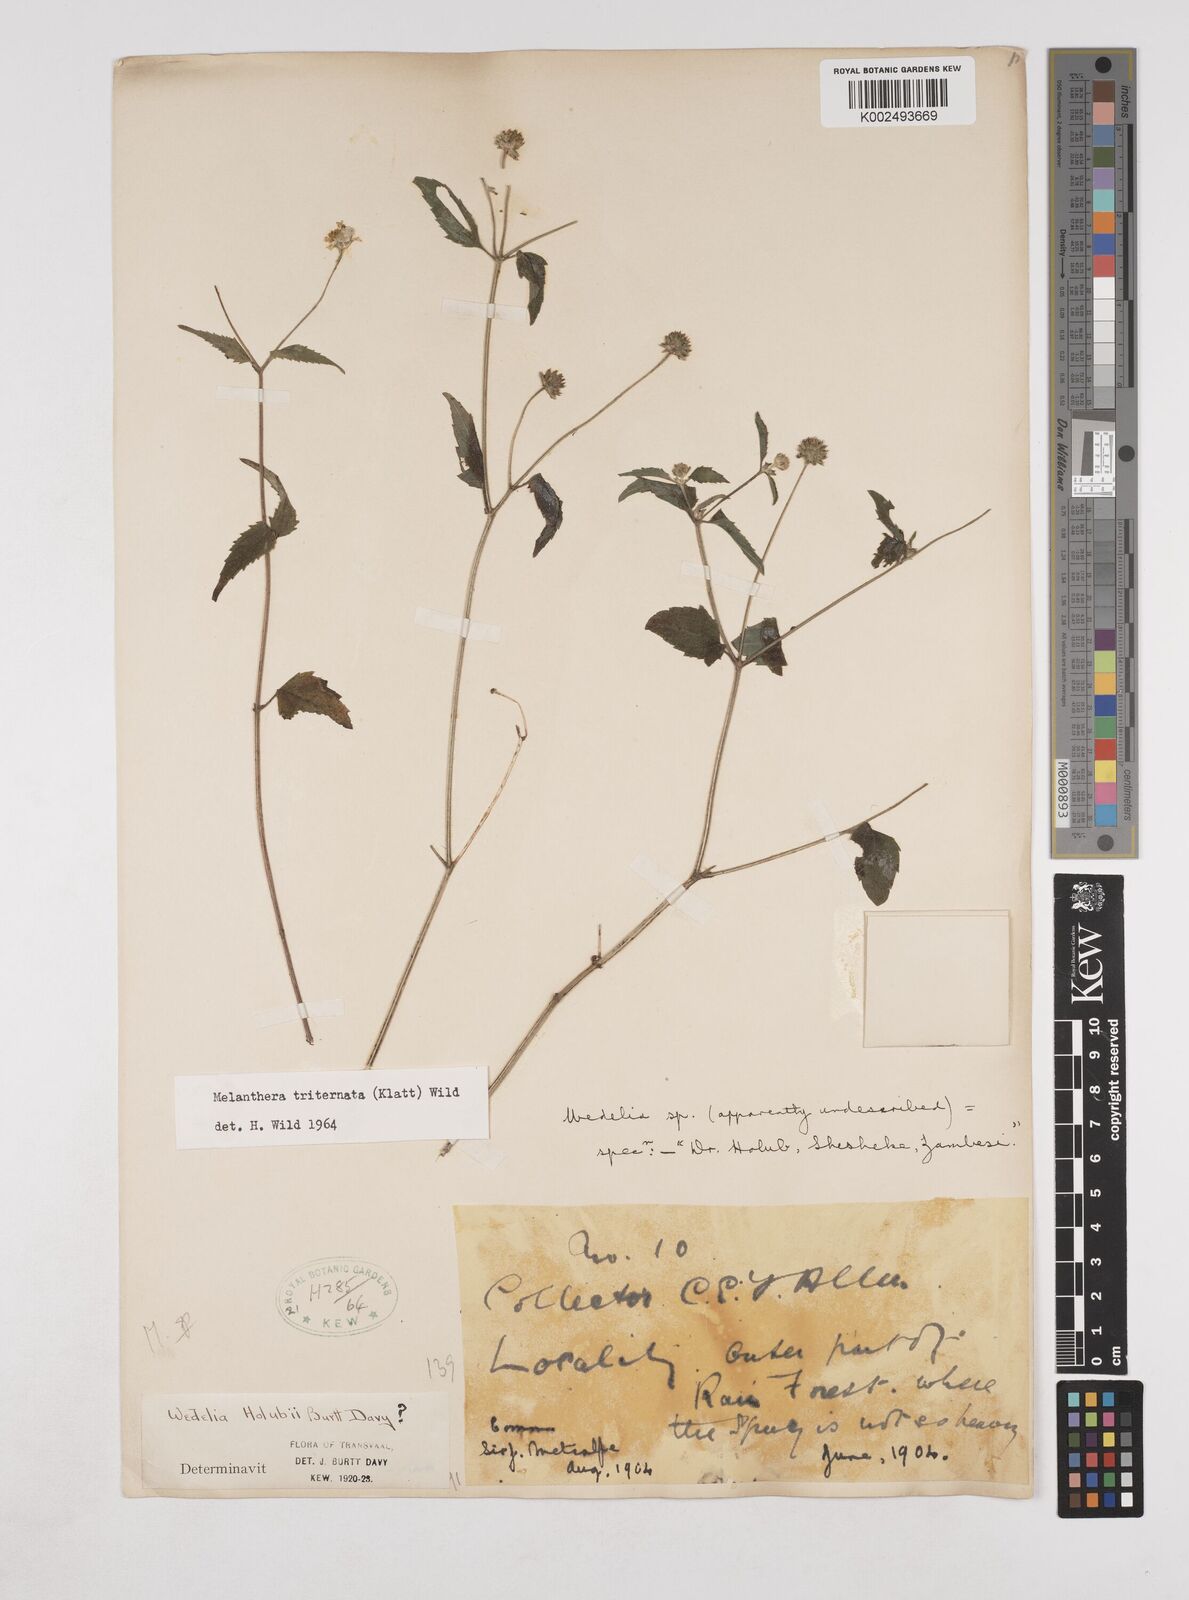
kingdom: Plantae
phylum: Tracheophyta
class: Magnoliopsida
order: Asterales
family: Asteraceae
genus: Lipotriche
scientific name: Lipotriche marlothiana
